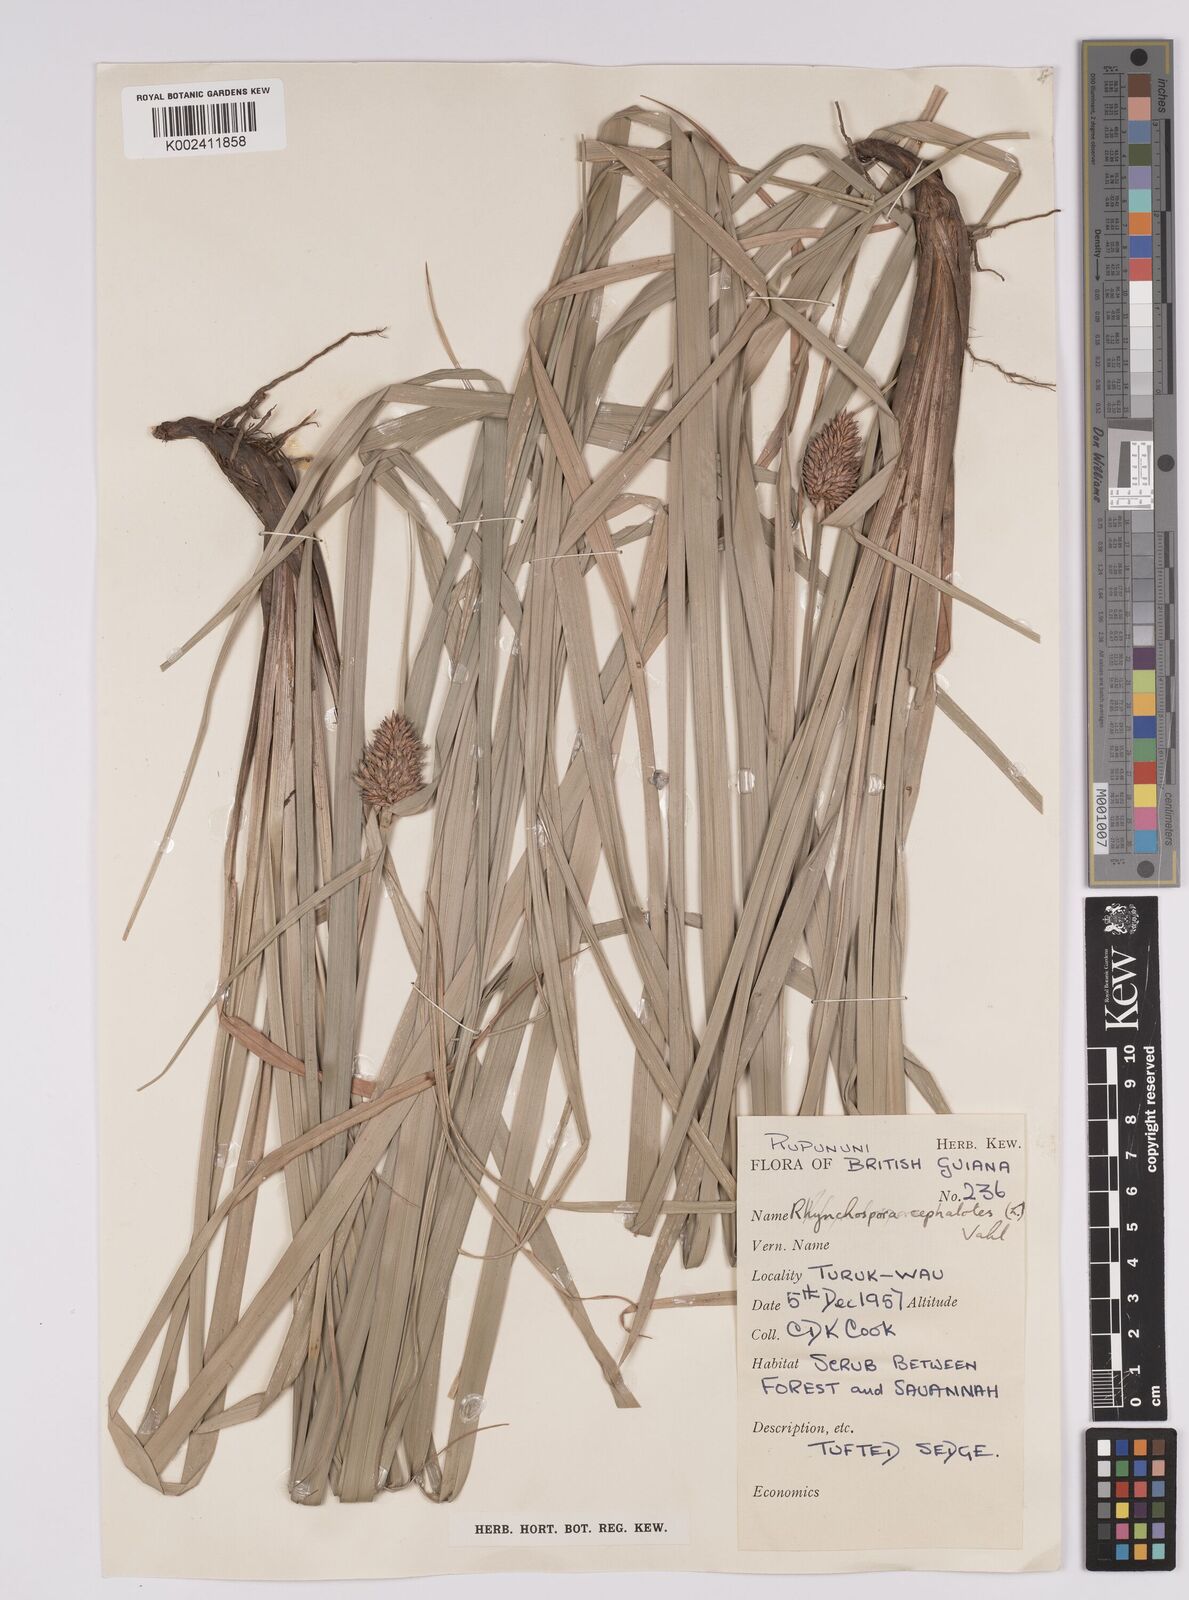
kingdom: Plantae
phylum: Tracheophyta
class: Liliopsida
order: Poales
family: Cyperaceae
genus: Rhynchospora
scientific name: Rhynchospora cephalotes
